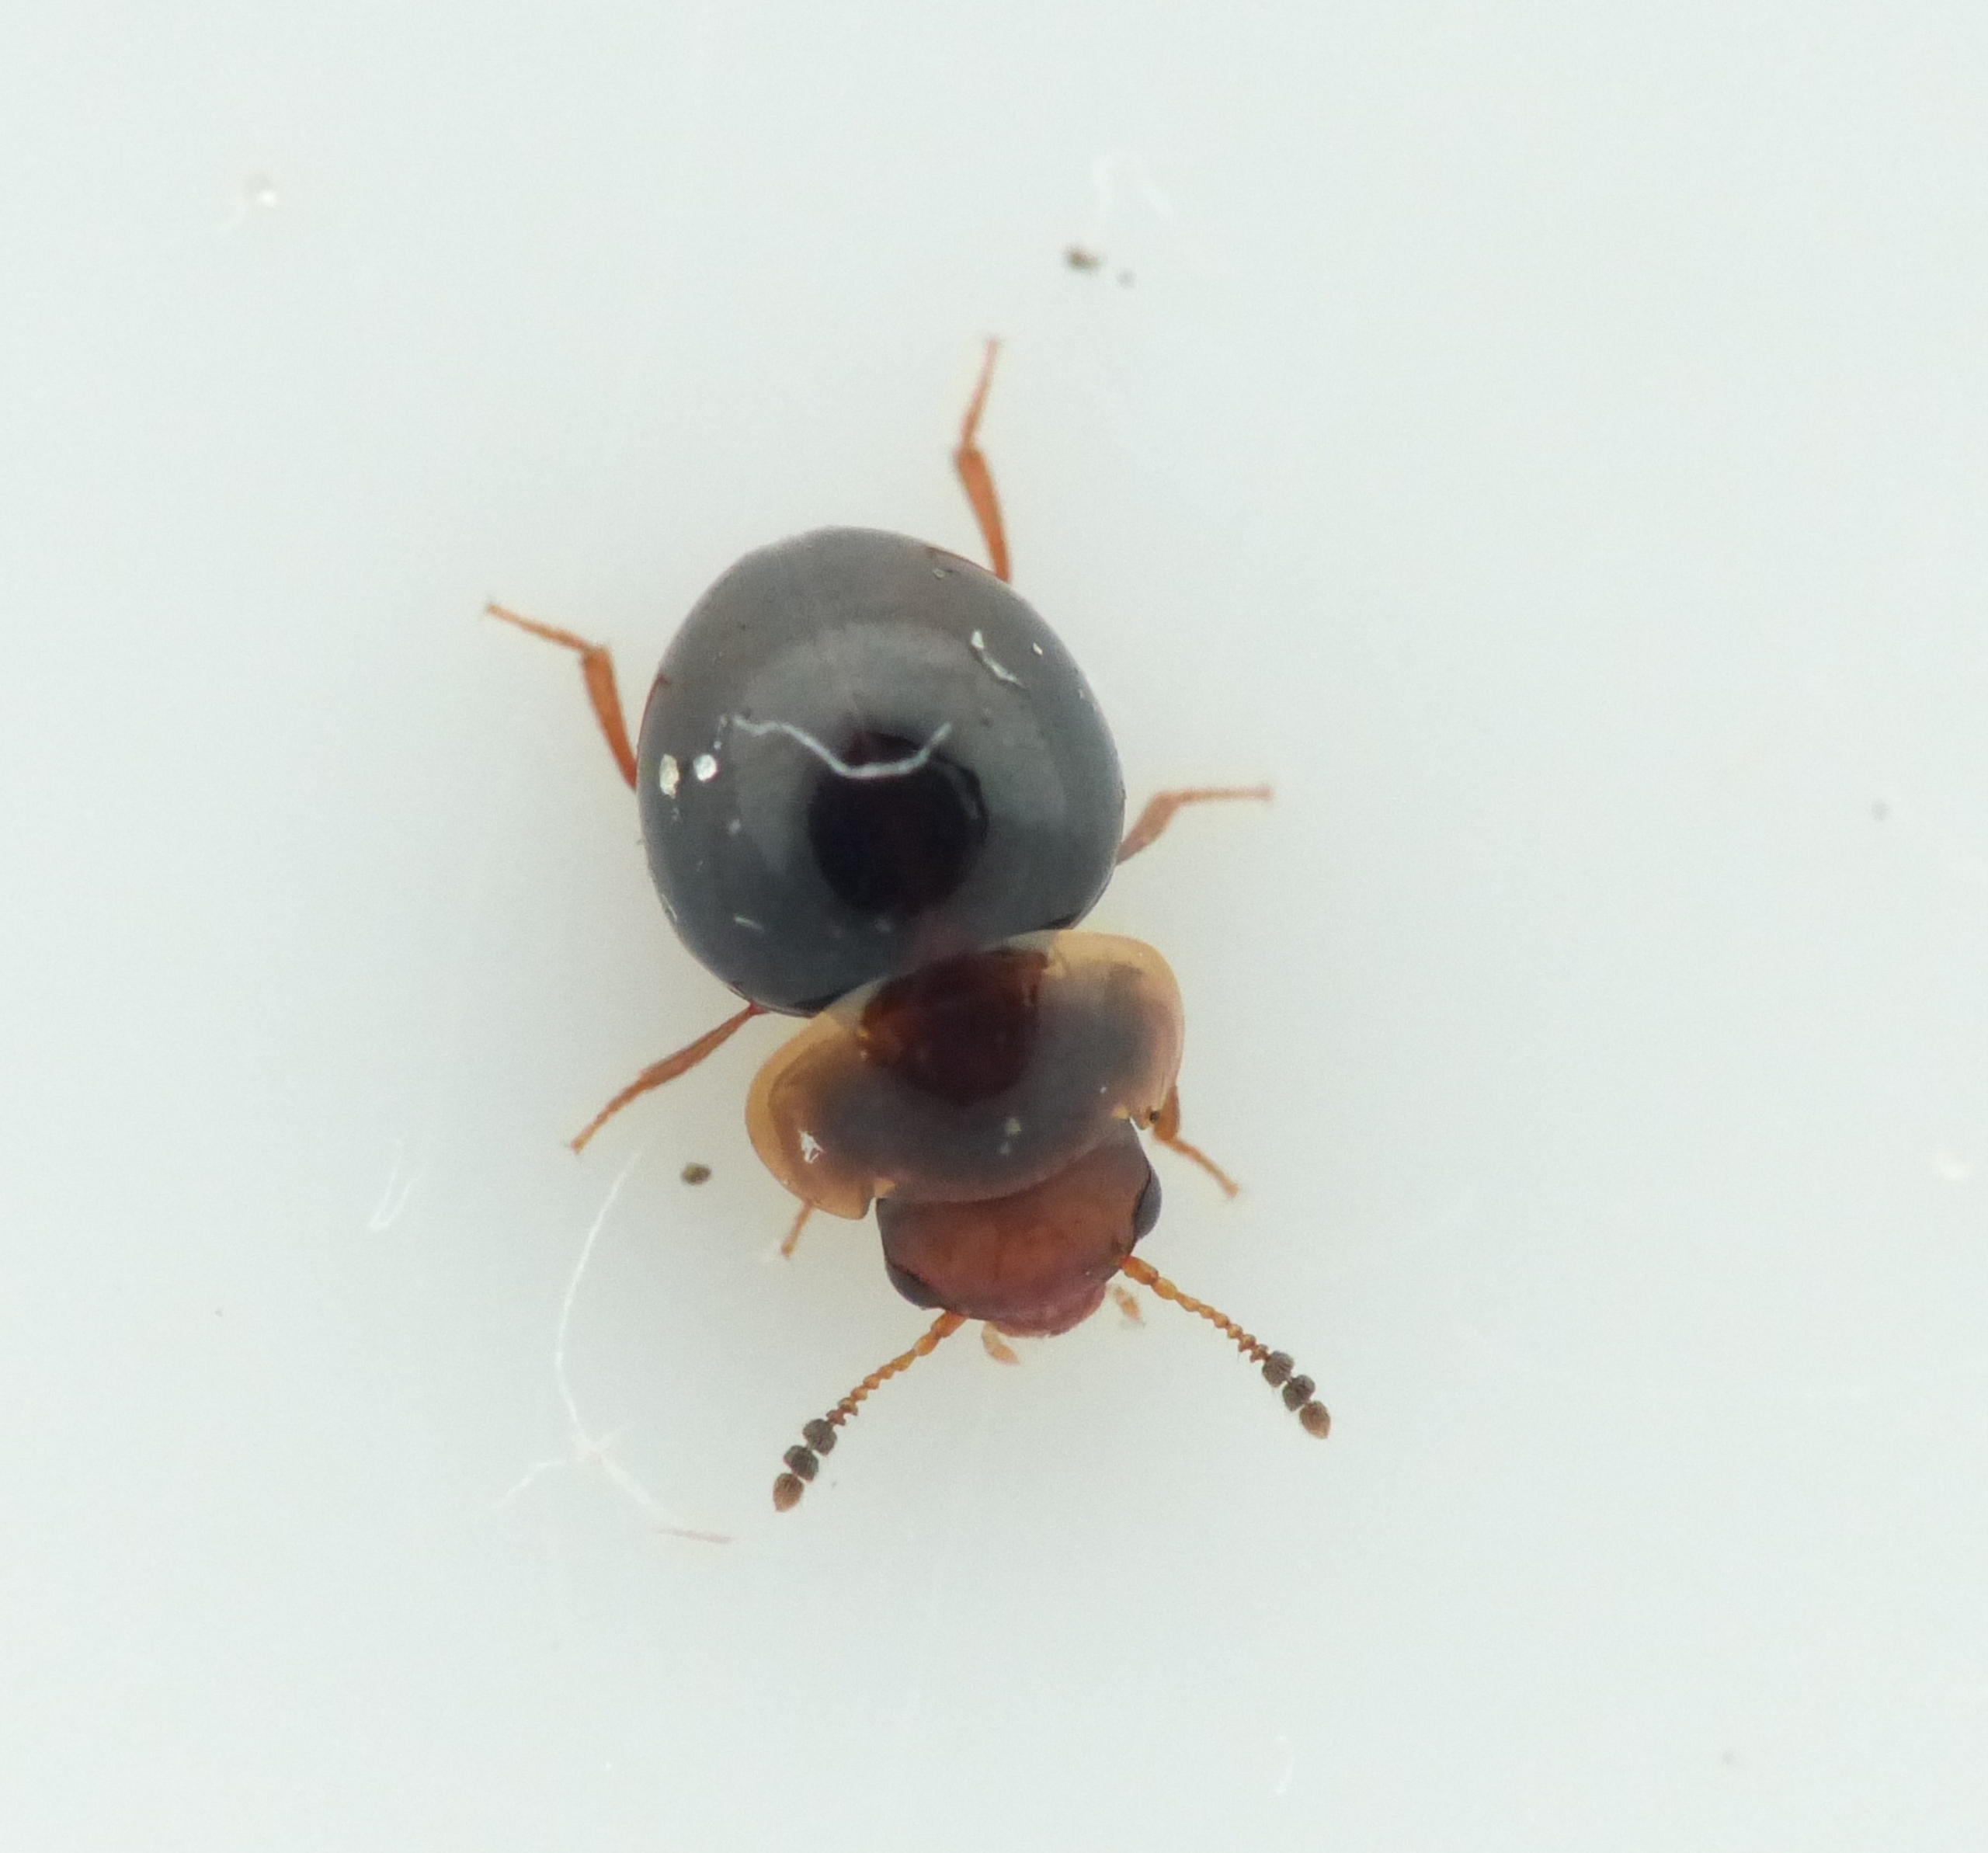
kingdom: Animalia
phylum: Arthropoda
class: Insecta
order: Coleoptera
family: Leiodidae
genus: Agathidium
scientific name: Agathidium varians
